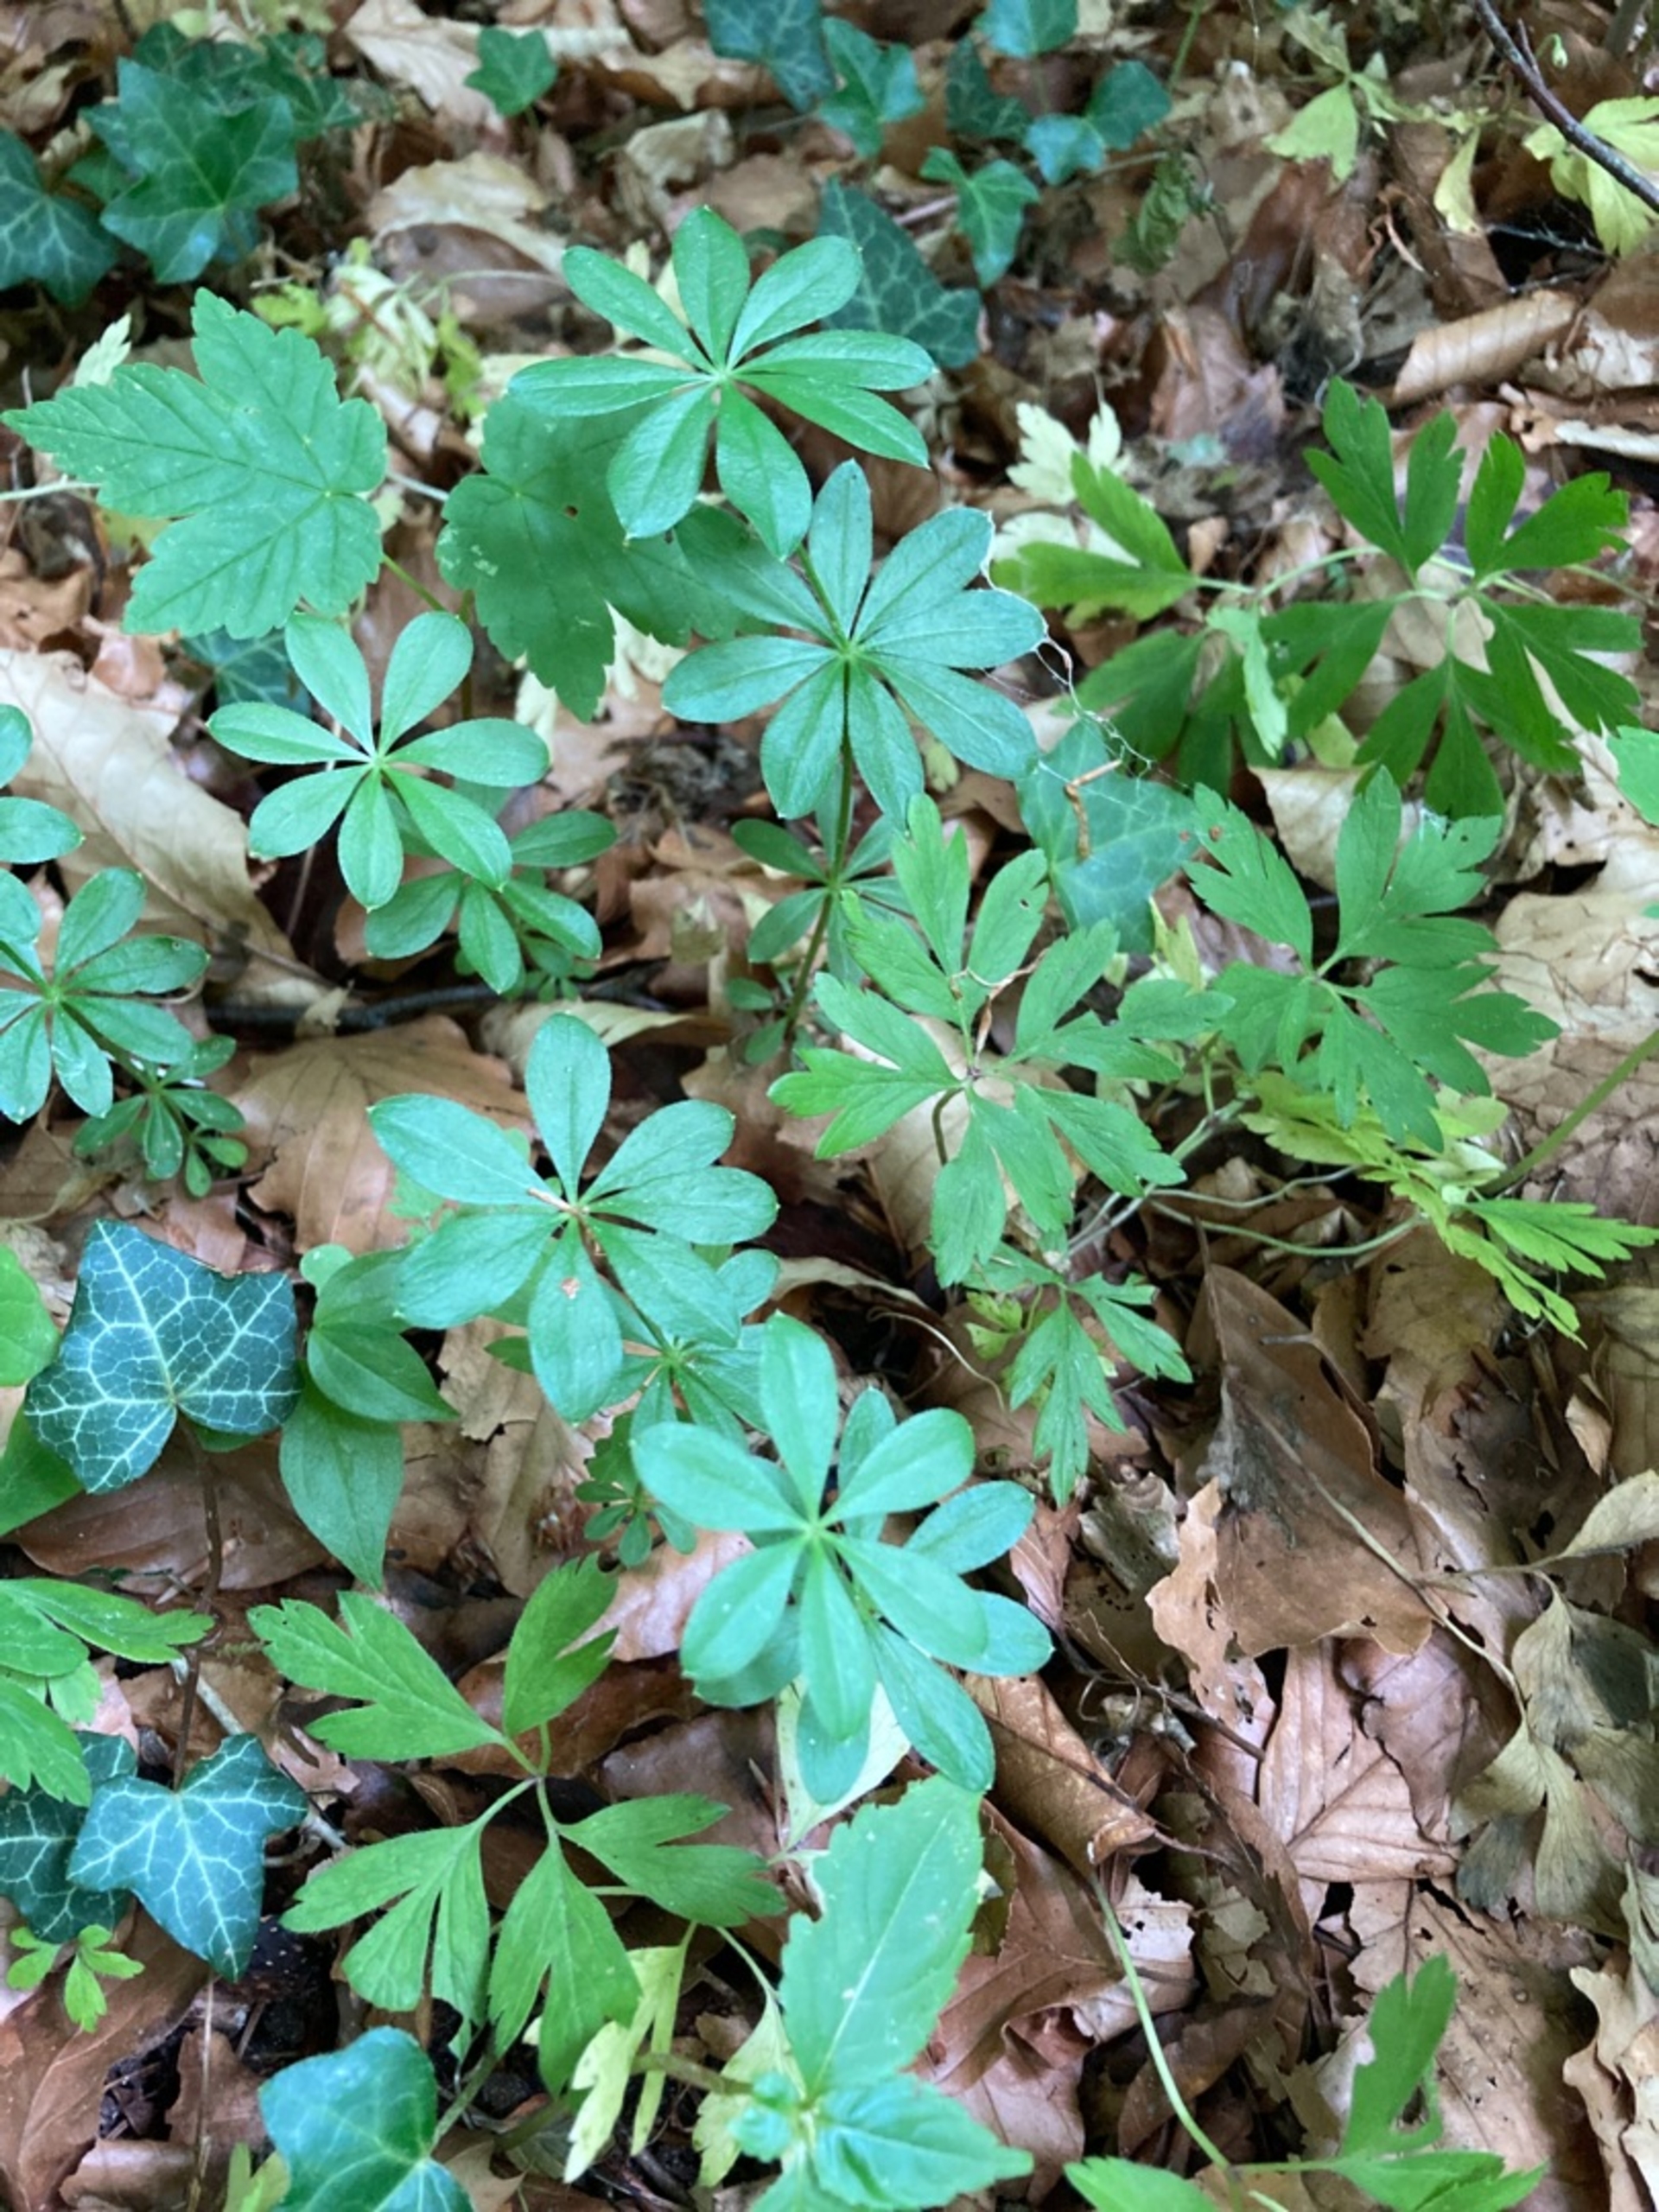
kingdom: Plantae
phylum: Tracheophyta
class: Magnoliopsida
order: Gentianales
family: Rubiaceae
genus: Galium
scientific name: Galium odoratum
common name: Skovmærke
